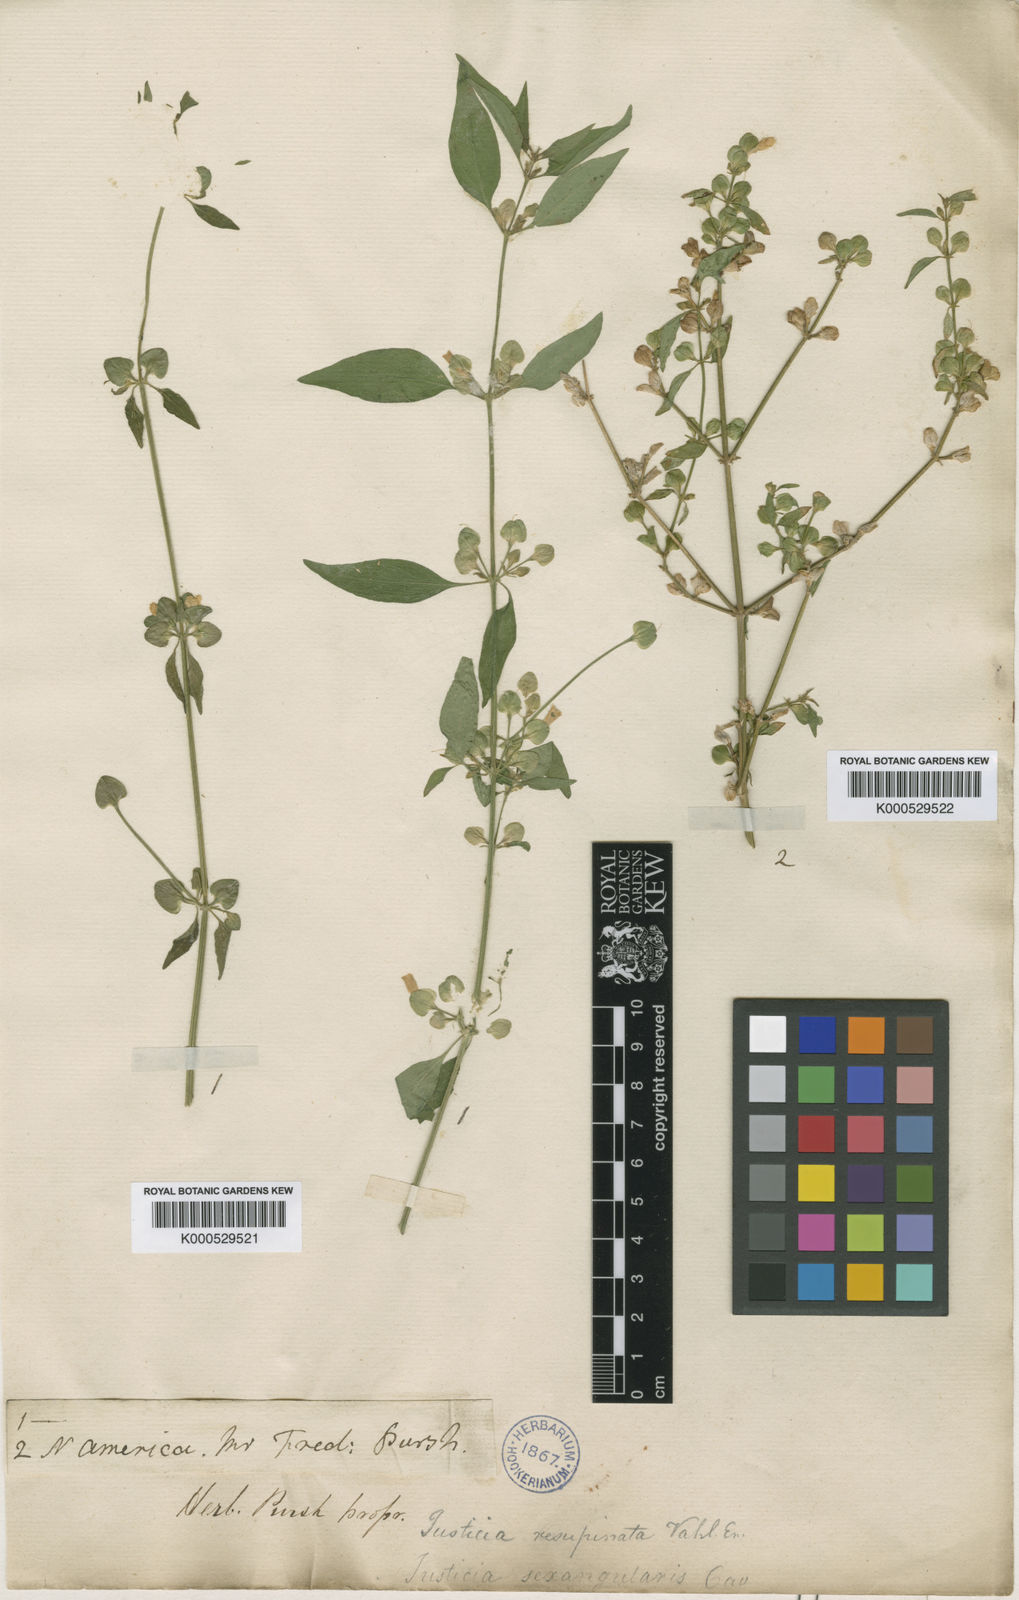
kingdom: Plantae
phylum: Tracheophyta
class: Magnoliopsida
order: Lamiales
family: Acanthaceae
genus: Dicliptera
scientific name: Dicliptera resupinata
